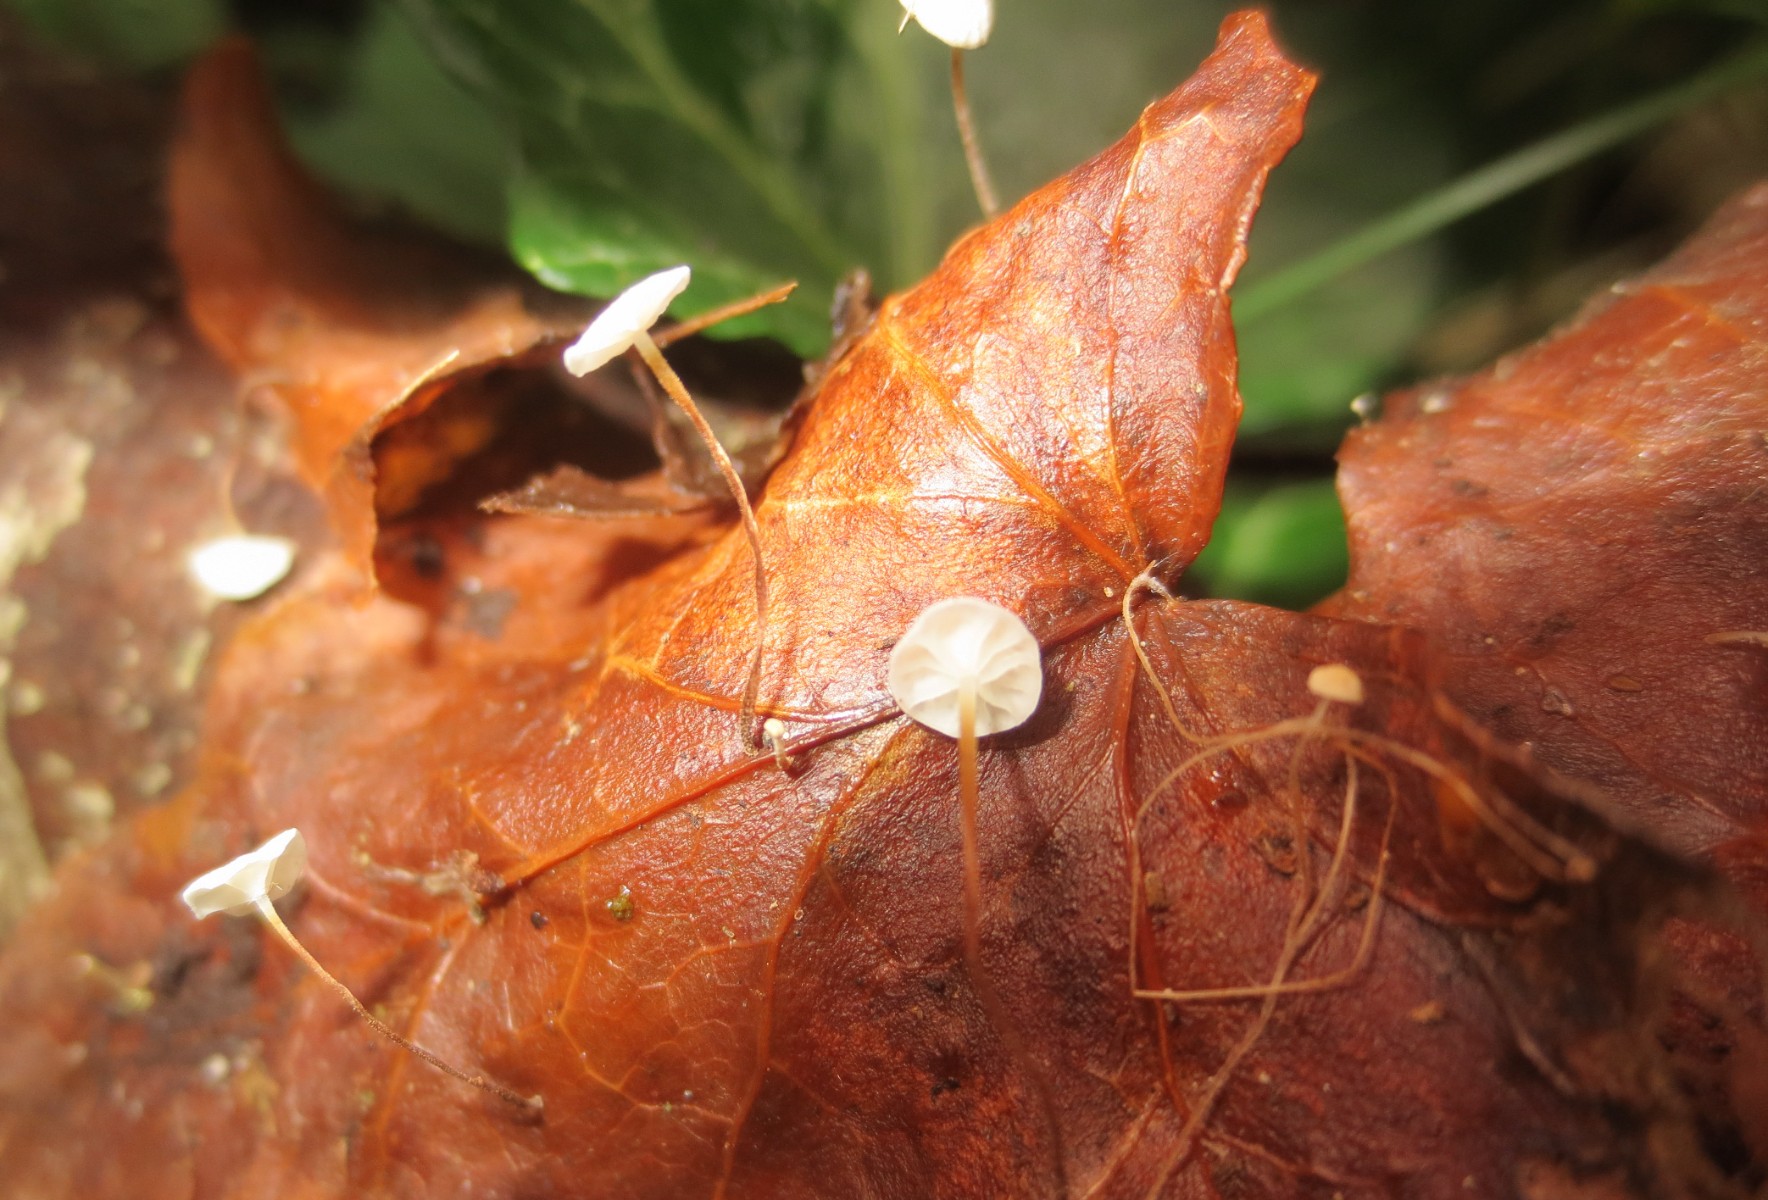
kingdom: Fungi
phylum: Basidiomycota
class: Agaricomycetes
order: Agaricales
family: Marasmiaceae
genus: Marasmius
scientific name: Marasmius epiphylloides
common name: vedbend-bruskhat
